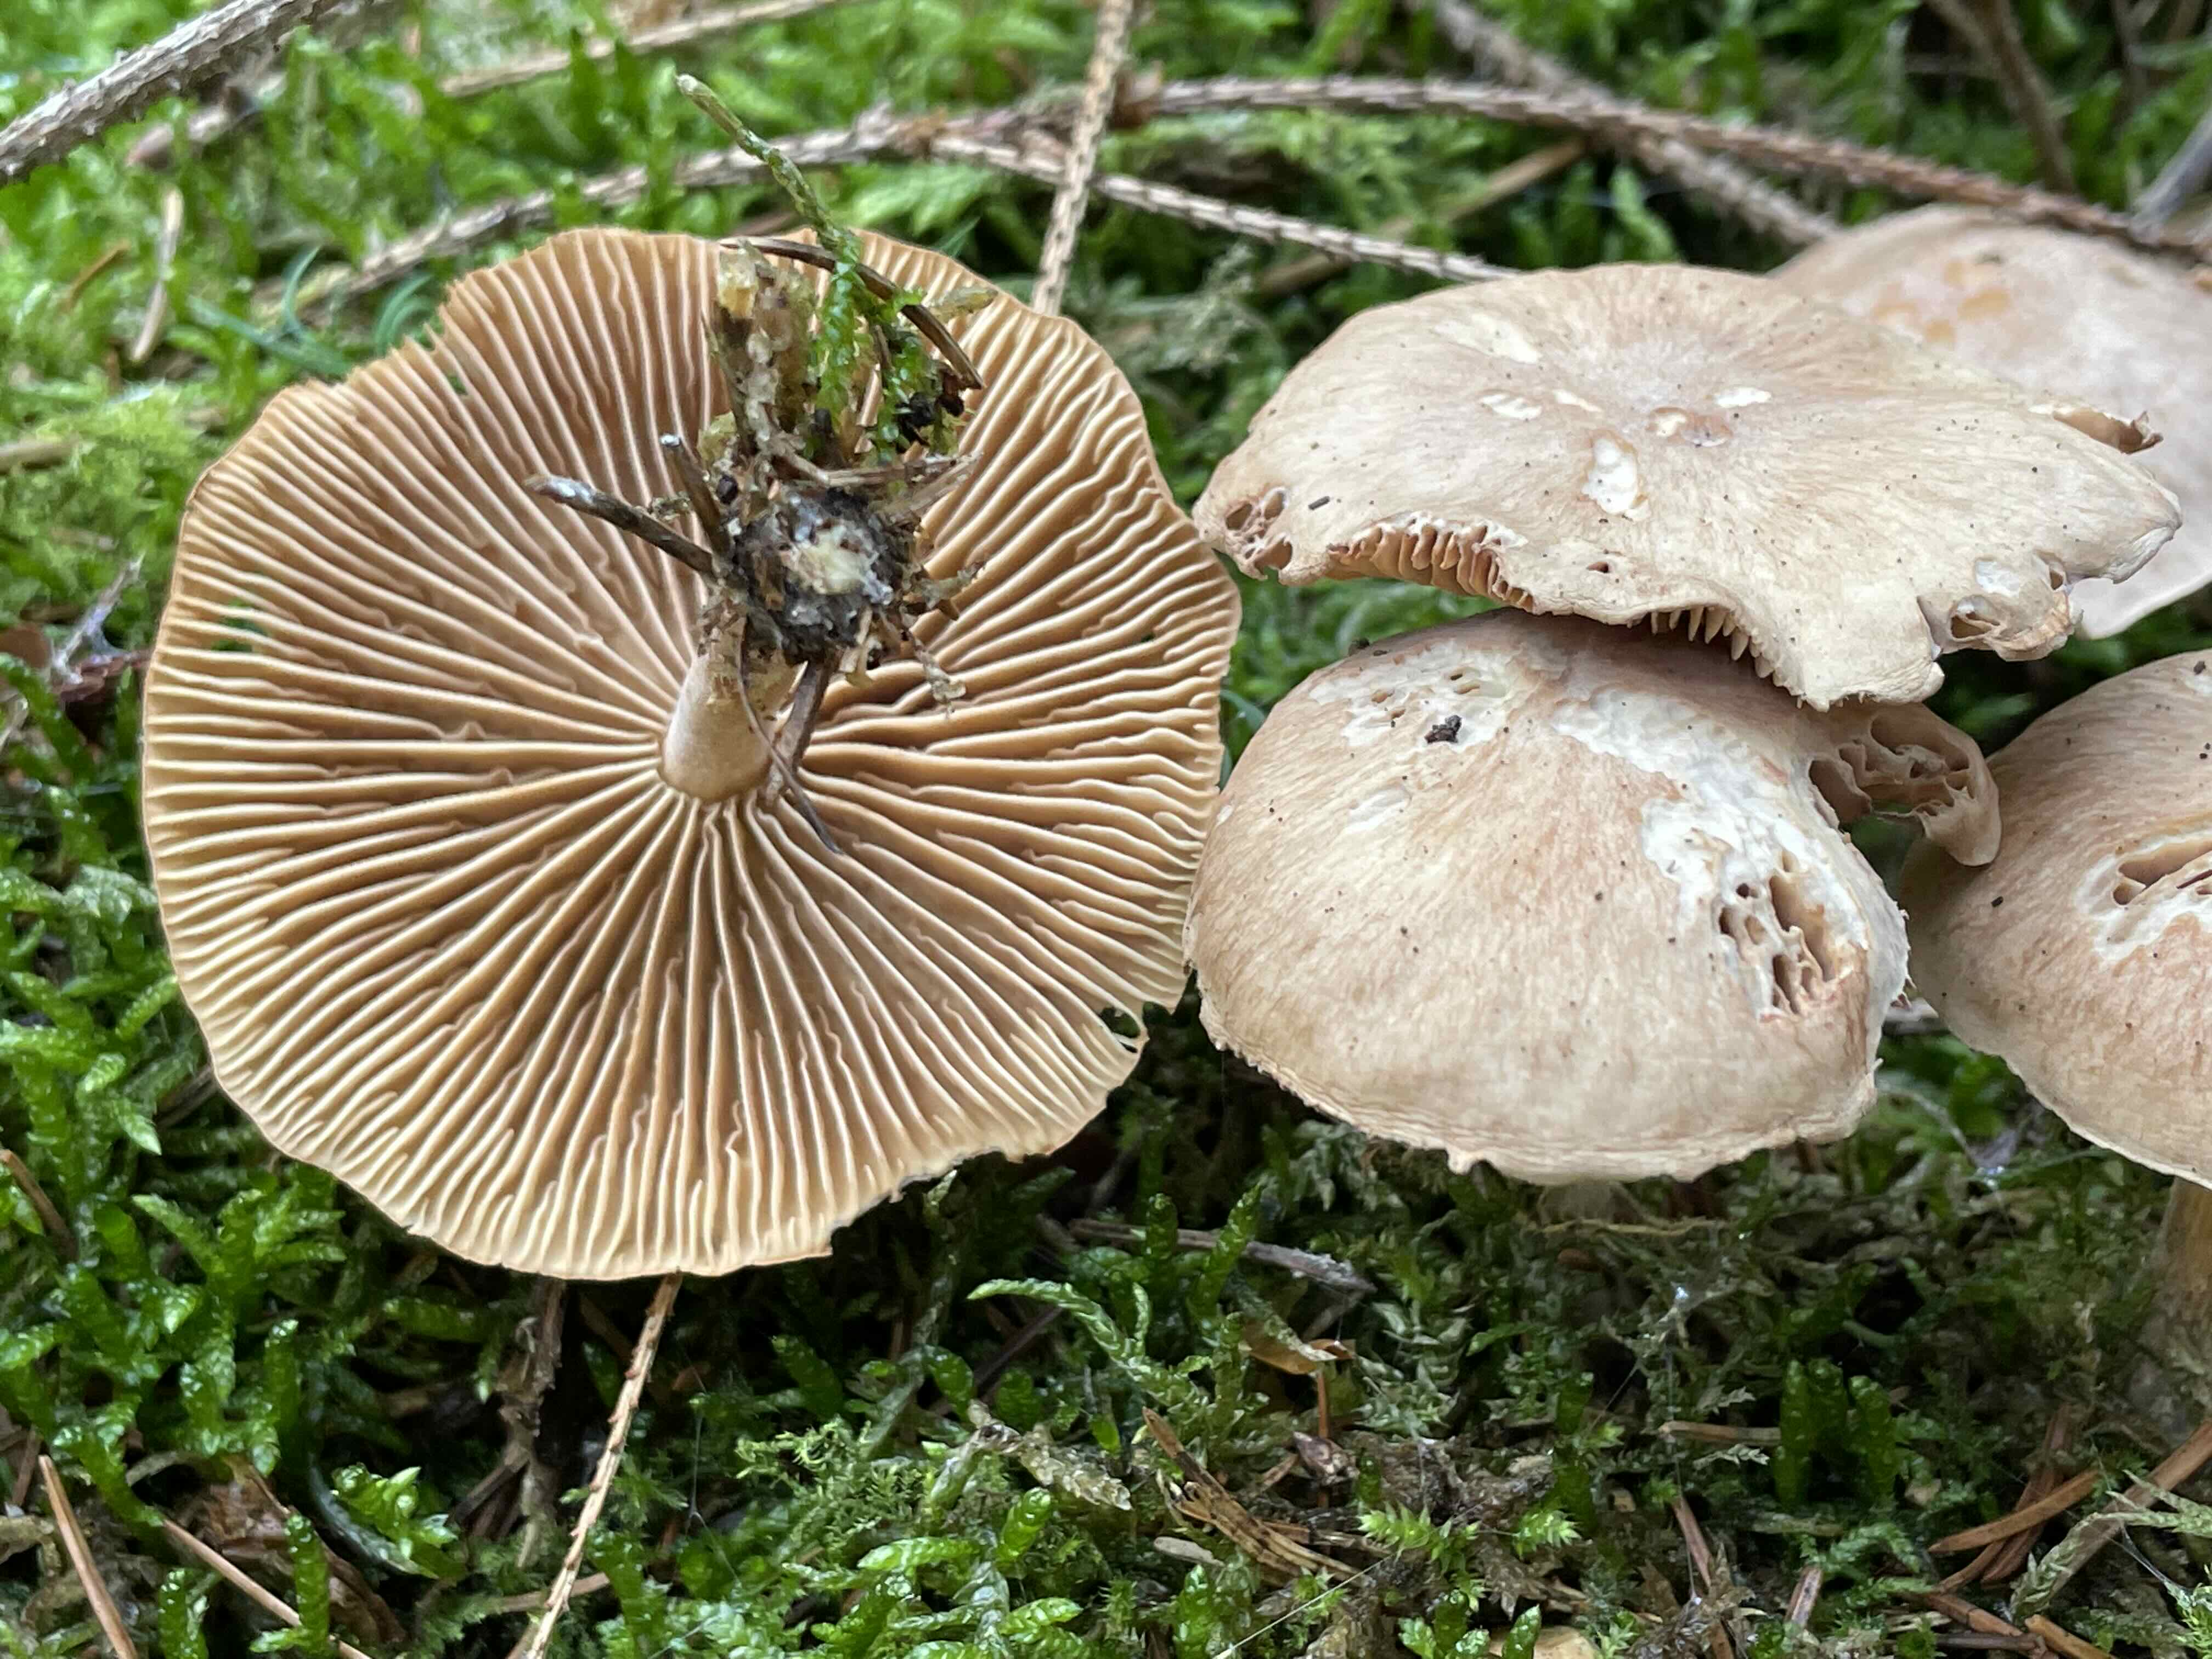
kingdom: Fungi
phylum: Basidiomycota
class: Agaricomycetes
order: Agaricales
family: Omphalotaceae
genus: Collybiopsis
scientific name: Collybiopsis peronata
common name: bestøvlet fladhat
